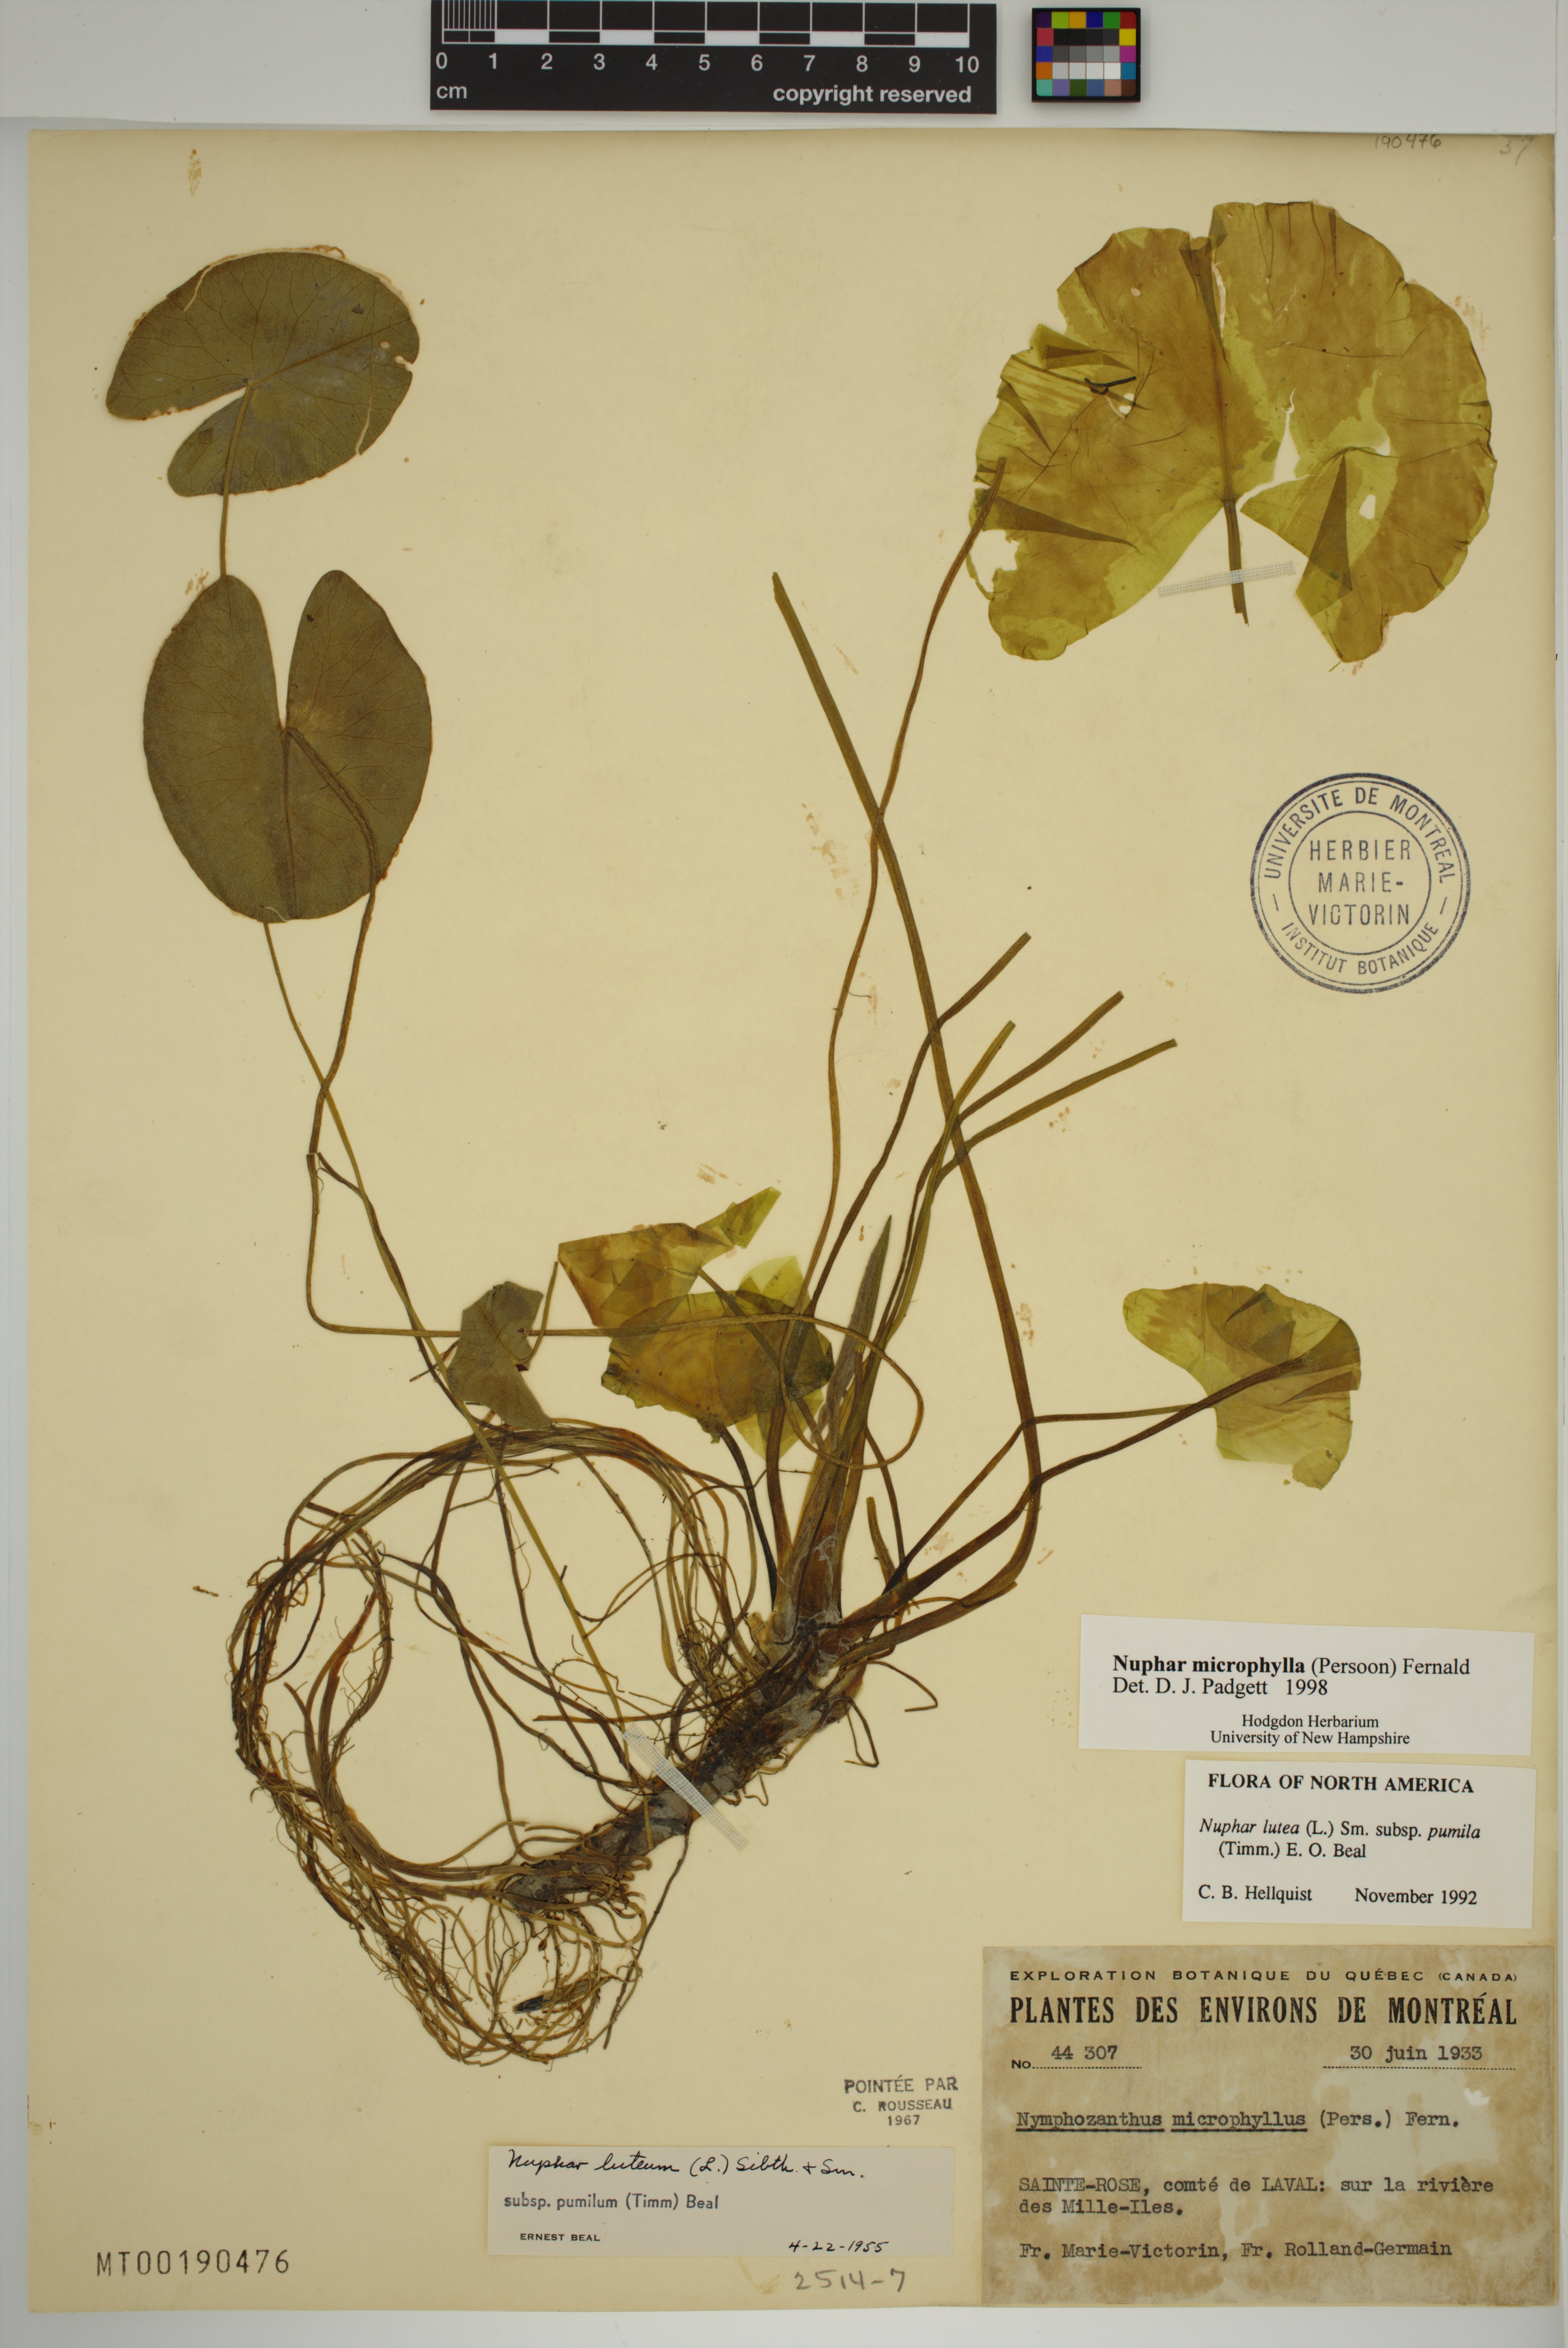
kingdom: Plantae
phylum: Tracheophyta
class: Magnoliopsida
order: Nymphaeales
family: Nymphaeaceae
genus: Nuphar
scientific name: Nuphar microphylla
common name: Small pond-lily
